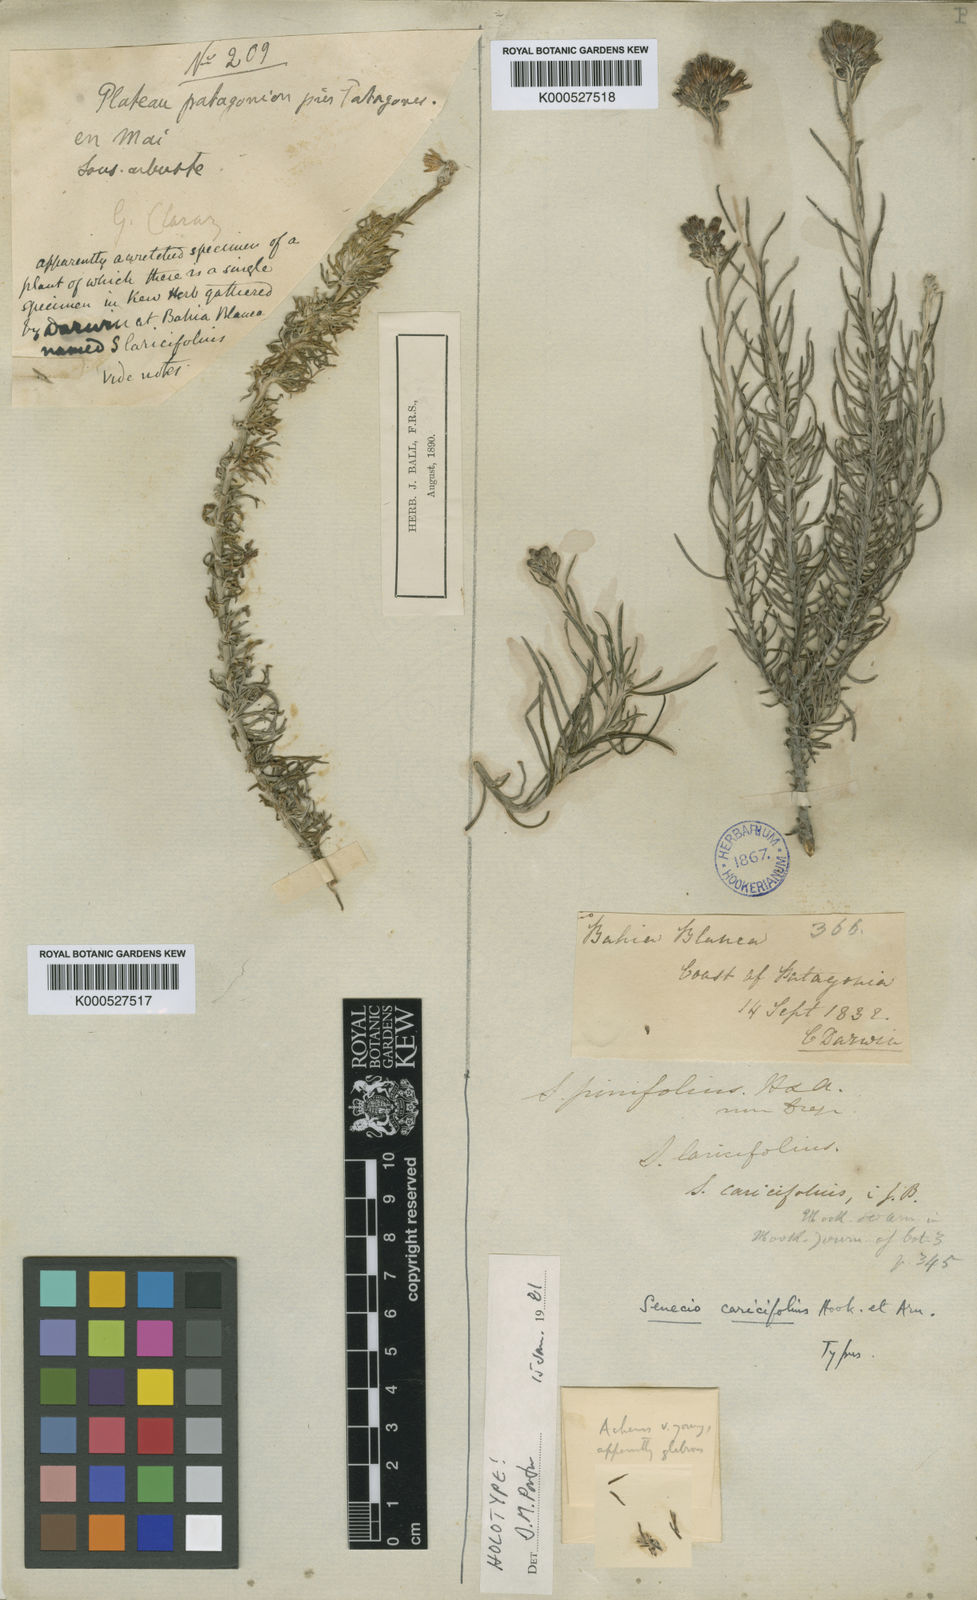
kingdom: Plantae
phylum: Tracheophyta
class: Magnoliopsida
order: Asterales
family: Asteraceae
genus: Senecio
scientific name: Senecio filaginoides
